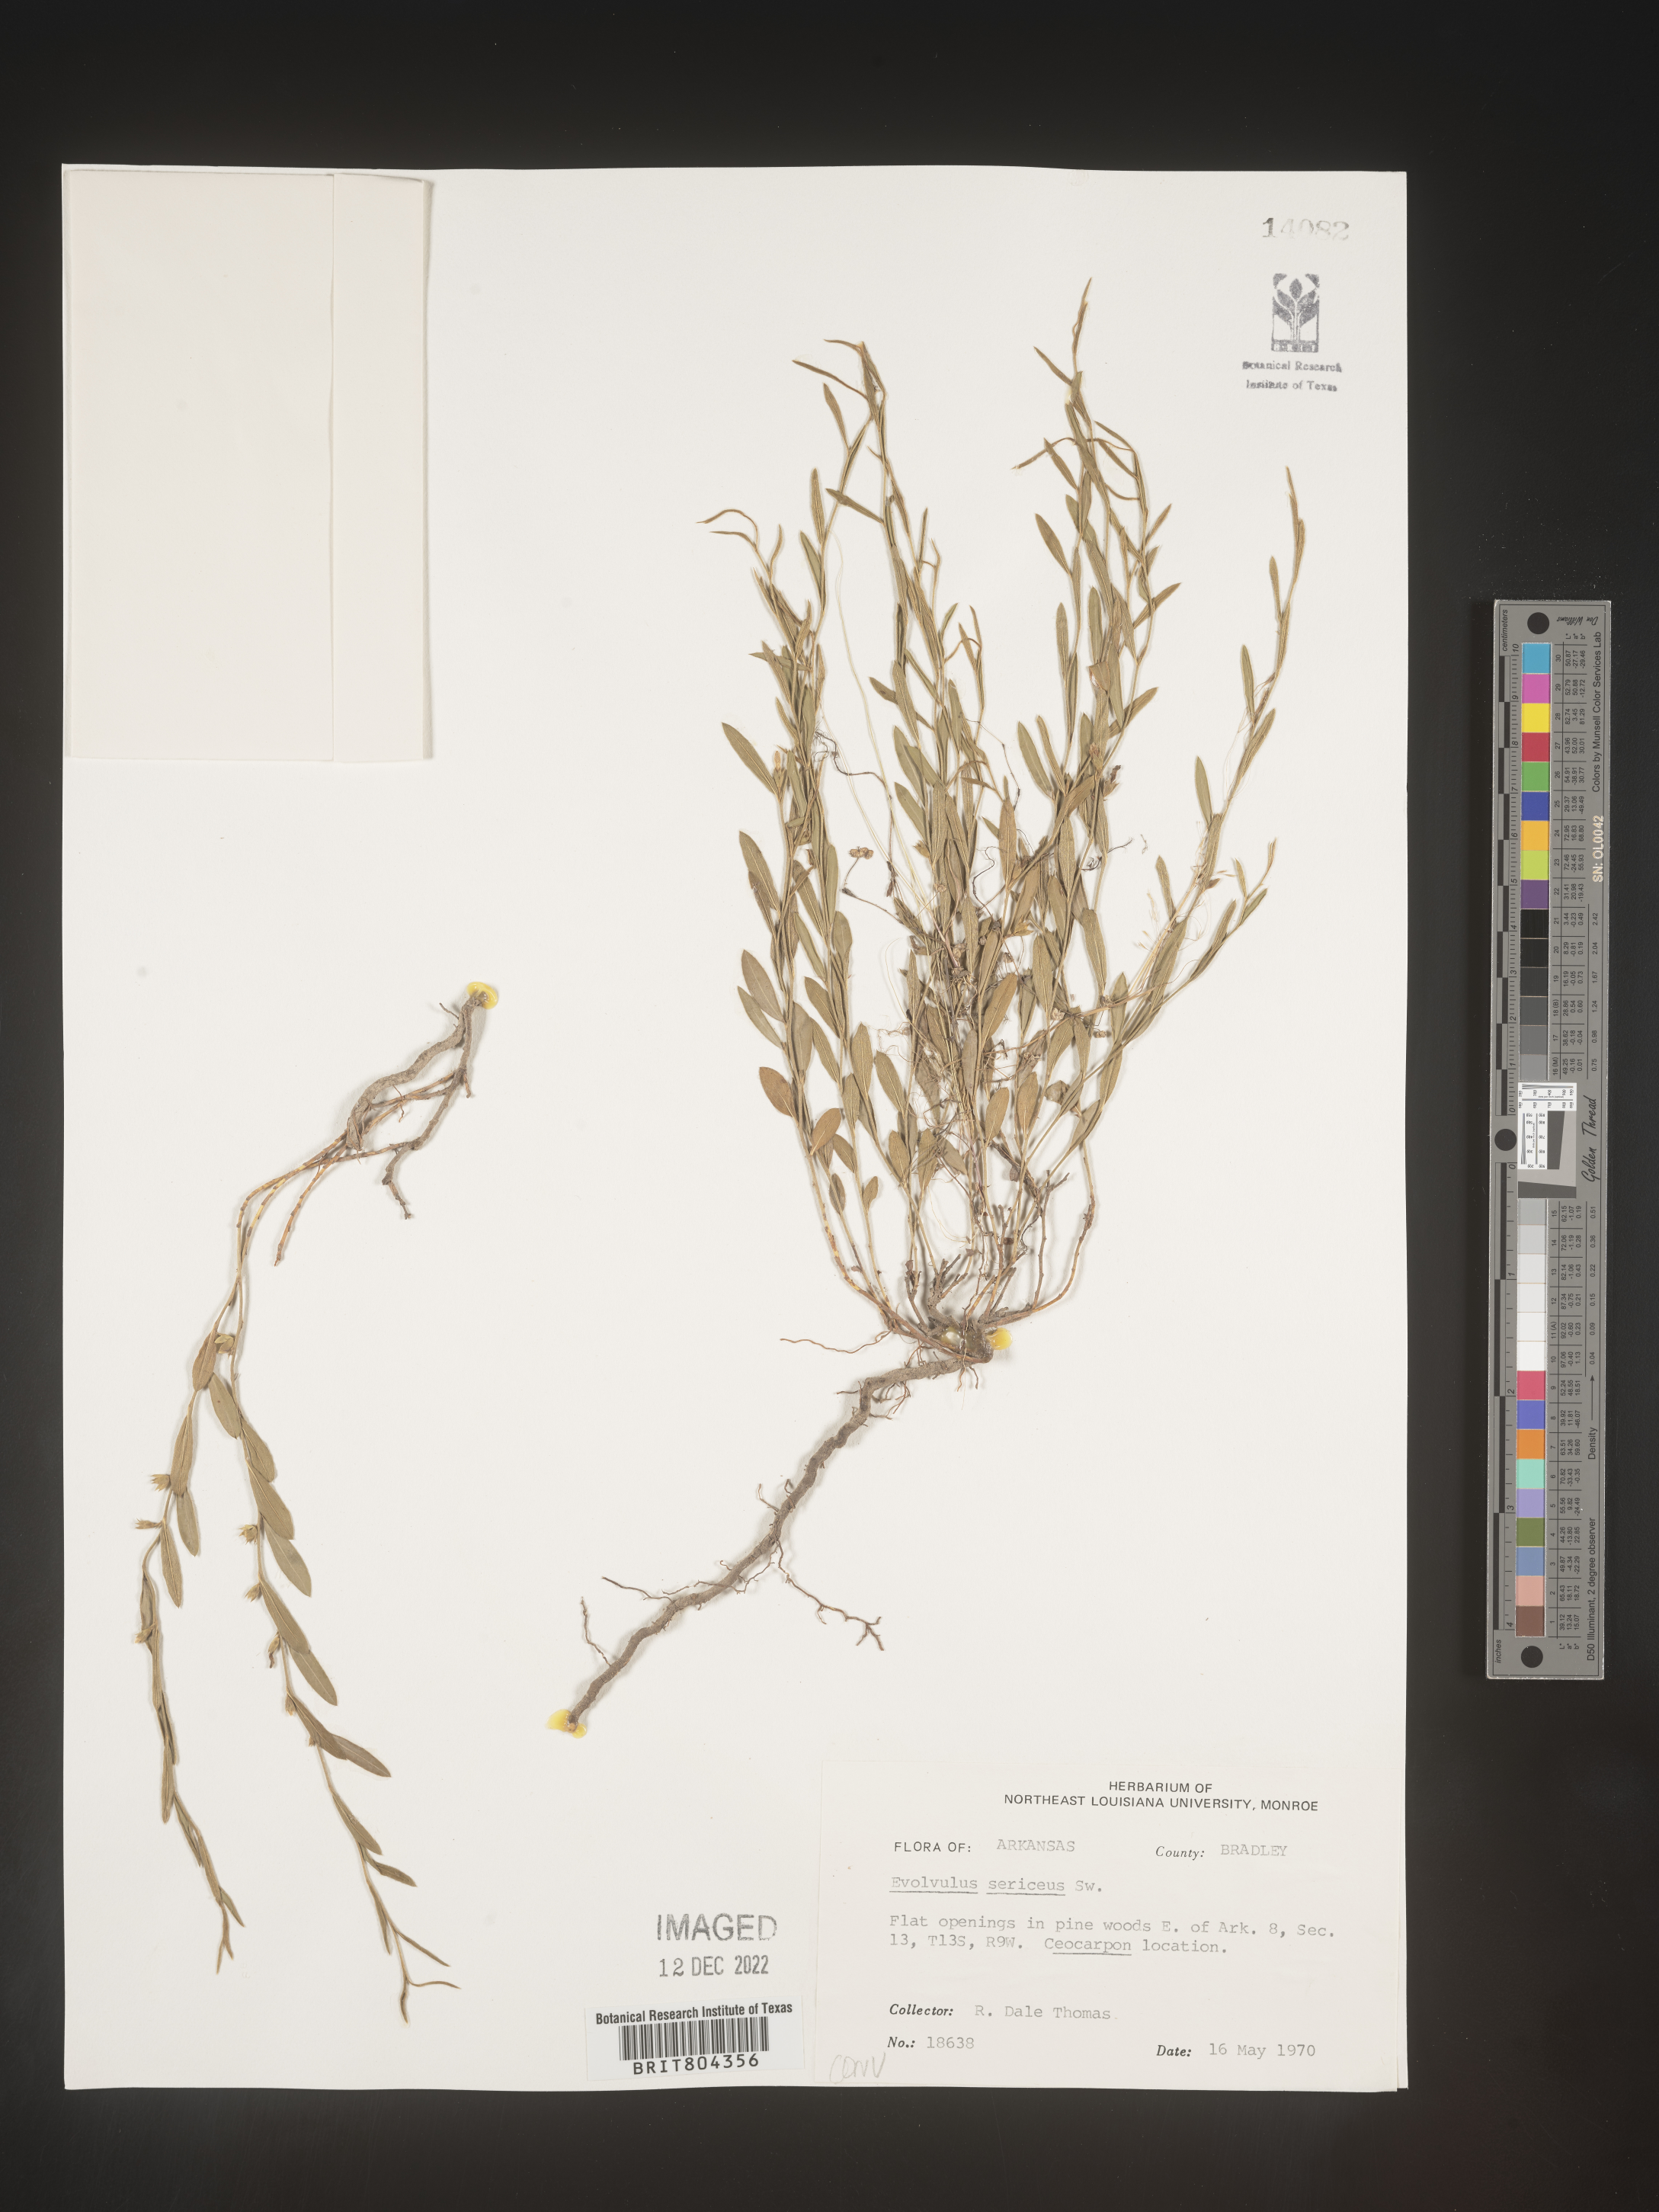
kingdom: Plantae
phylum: Tracheophyta
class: Magnoliopsida
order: Solanales
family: Convolvulaceae
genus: Evolvulus
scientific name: Evolvulus sericeus
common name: Blue dots
